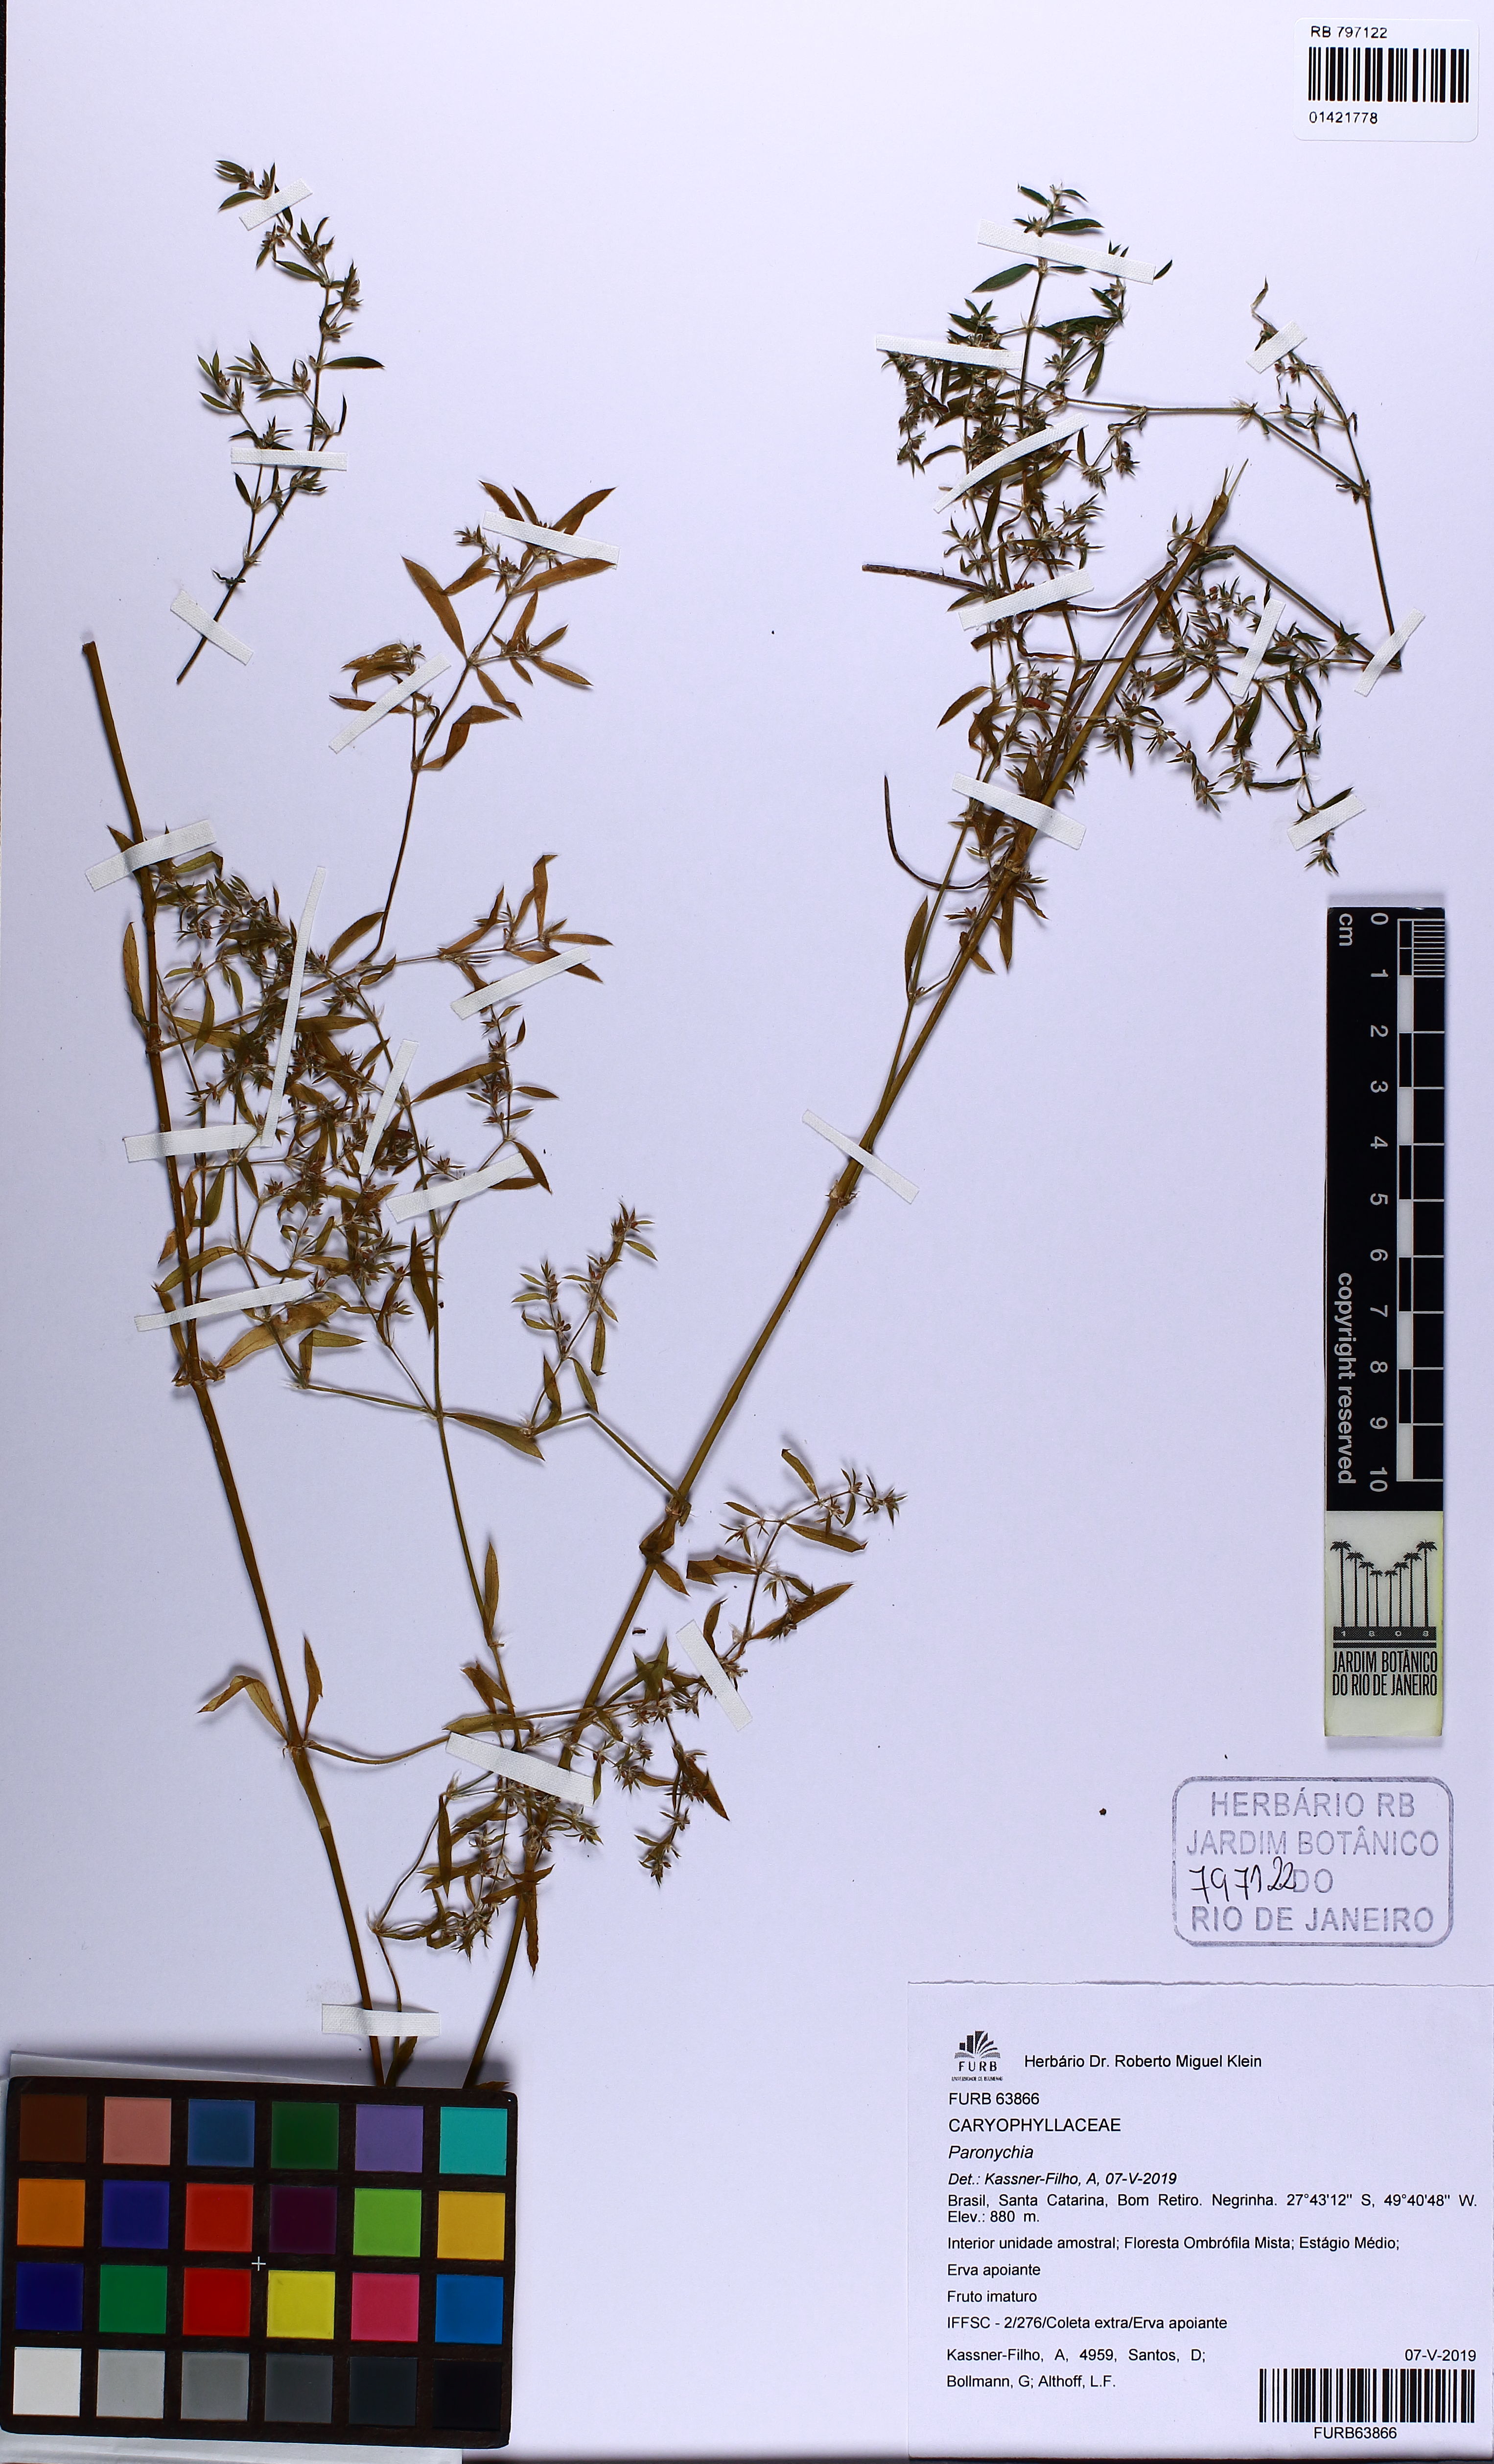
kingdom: Plantae
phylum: Tracheophyta
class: Magnoliopsida
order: Caryophyllales
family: Caryophyllaceae
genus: Paronychia
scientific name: Paronychia
